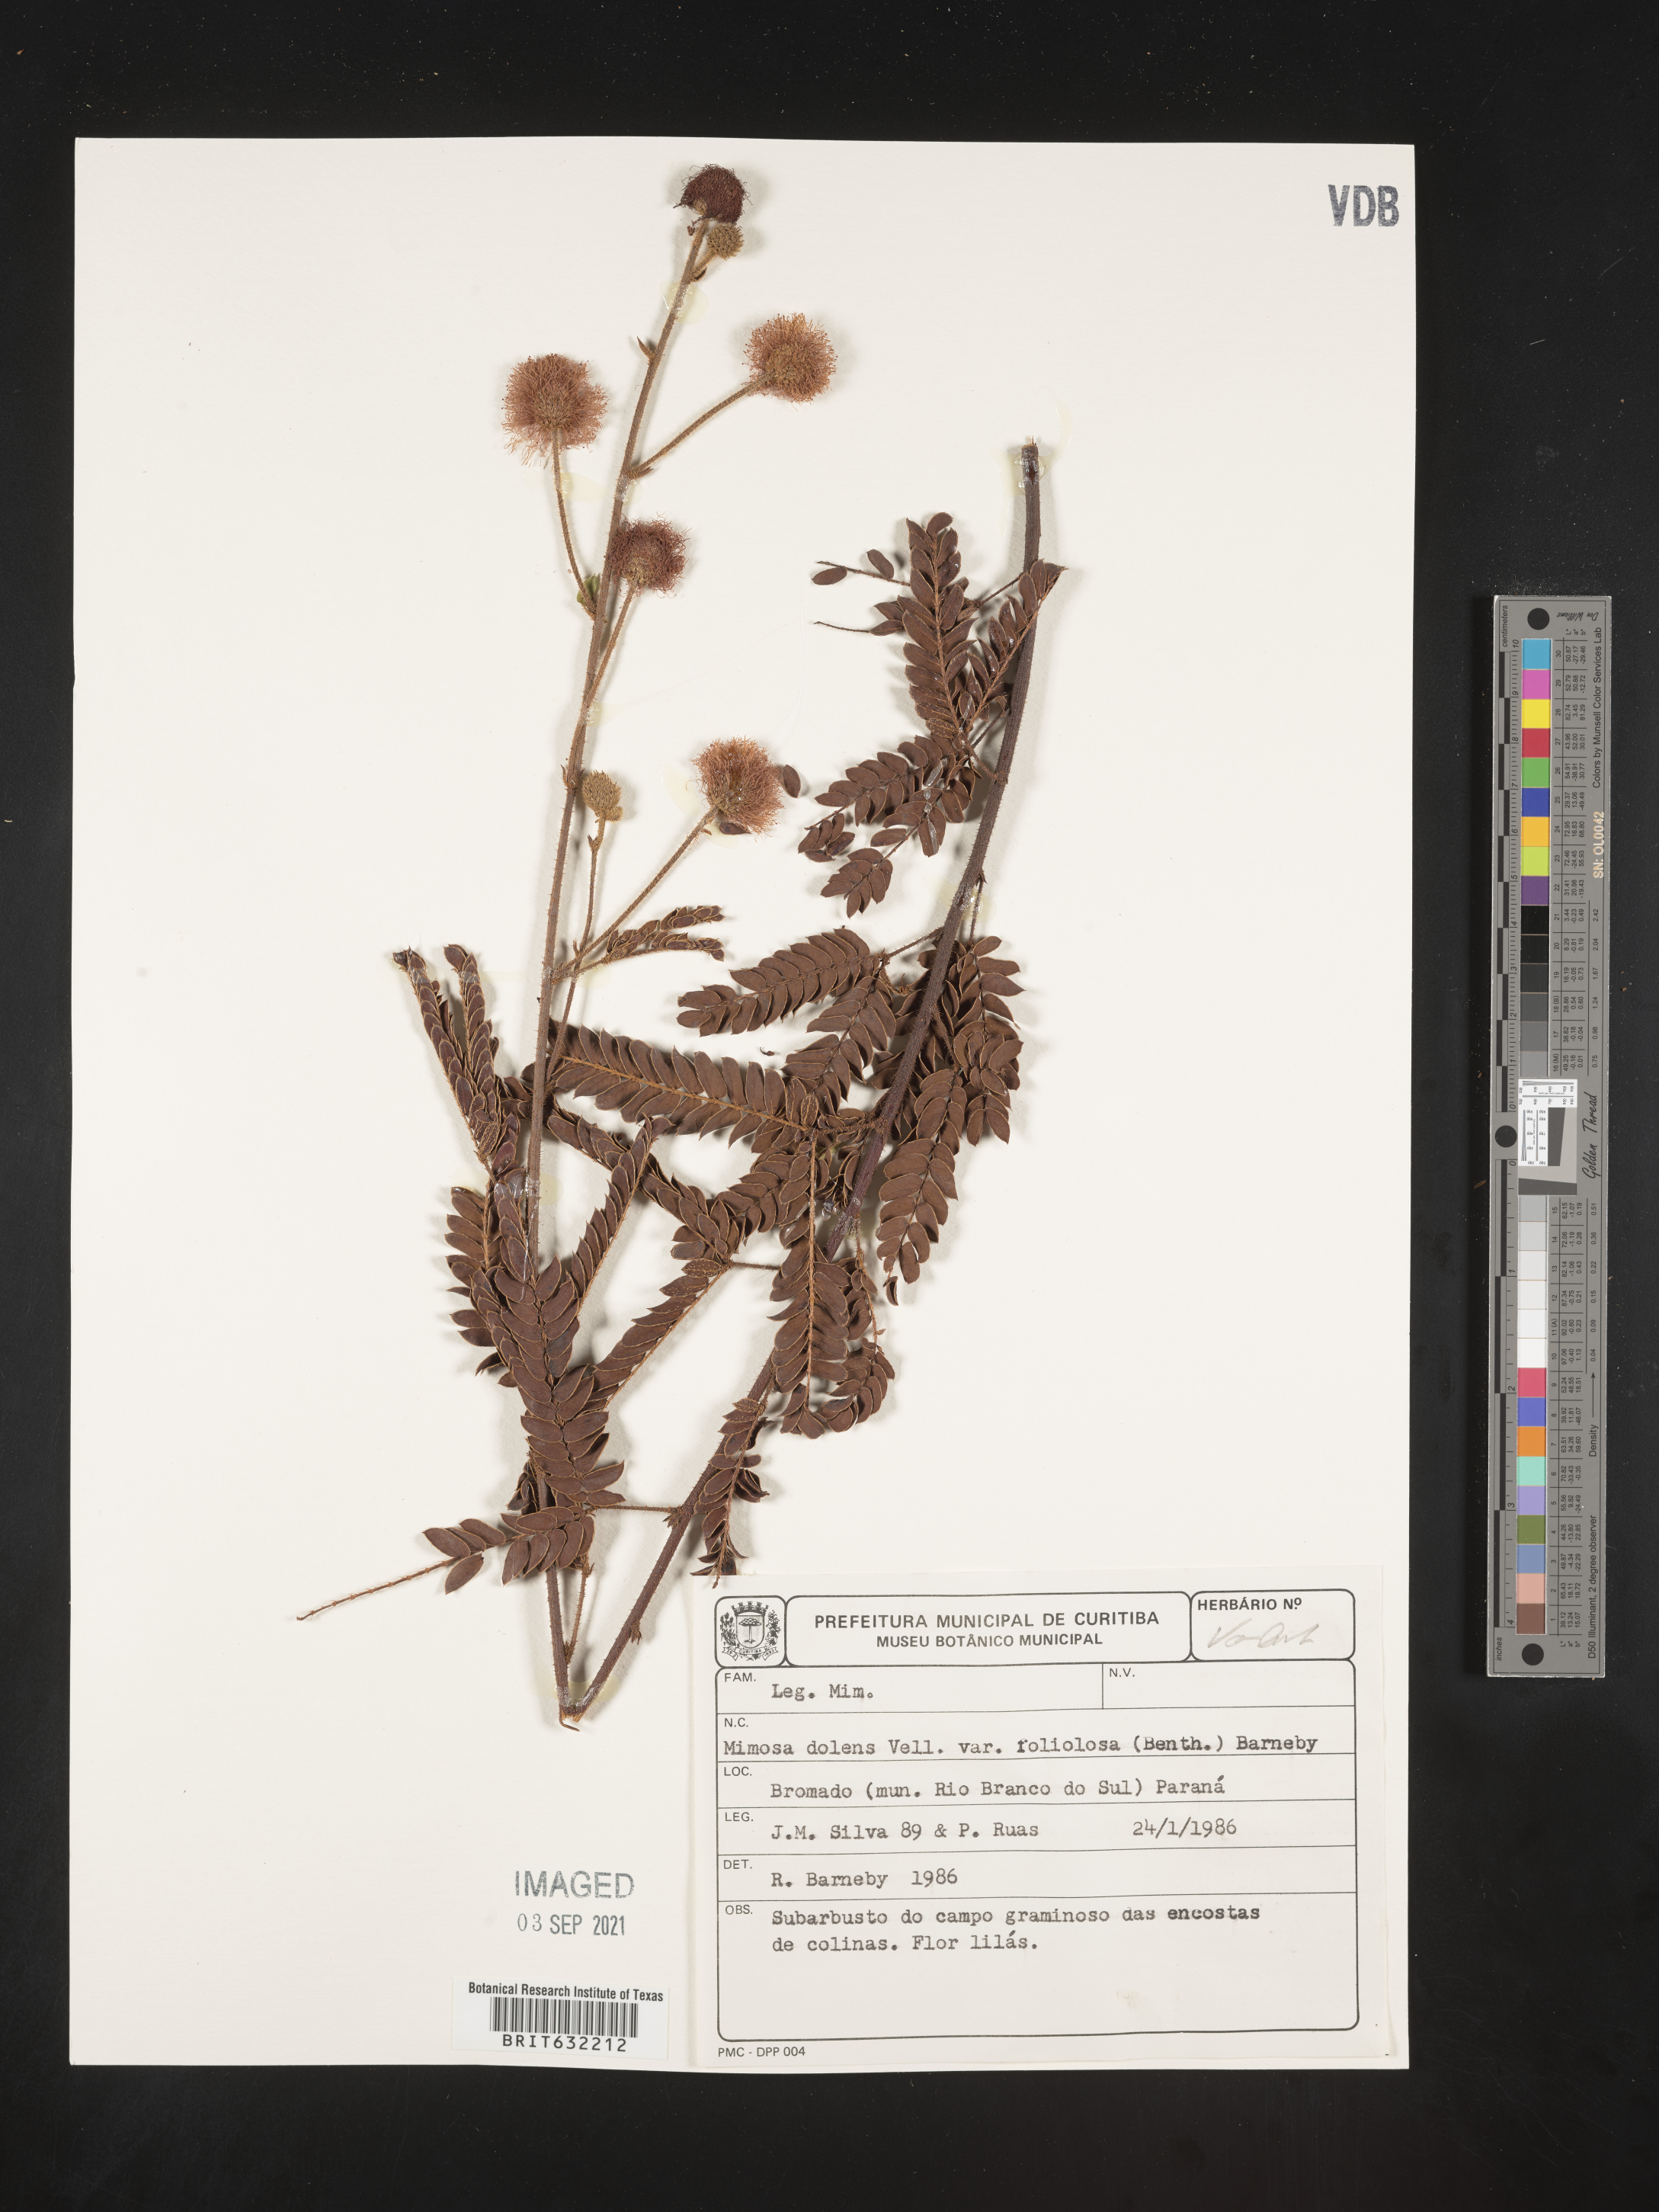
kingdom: Plantae
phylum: Tracheophyta
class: Magnoliopsida
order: Fabales
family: Fabaceae
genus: Mimosa
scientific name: Mimosa
